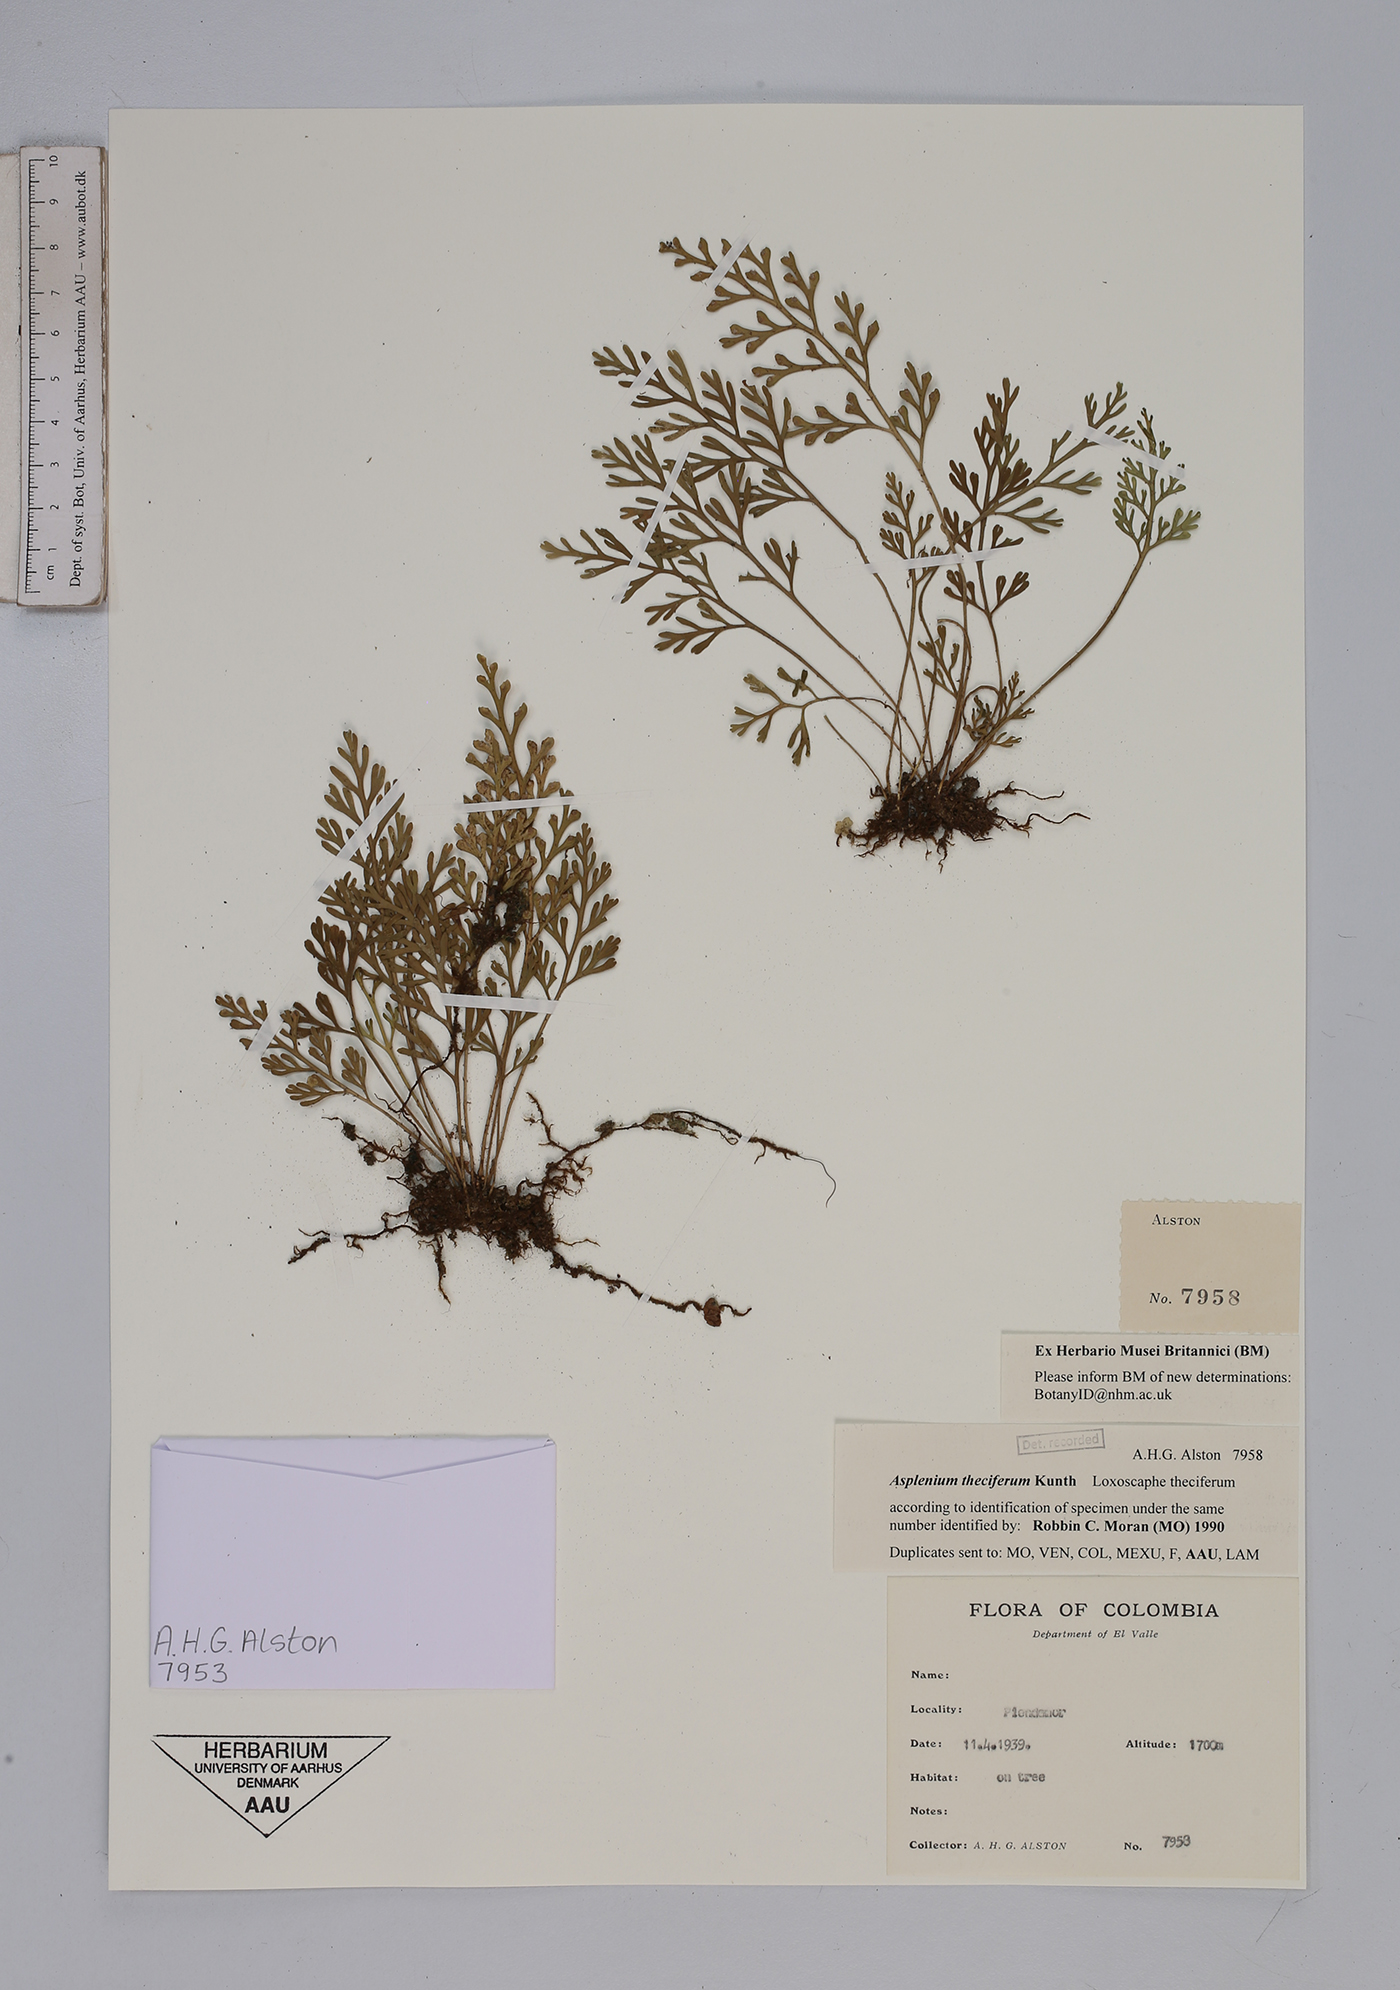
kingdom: Plantae
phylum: Tracheophyta
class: Polypodiopsida
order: Polypodiales
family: Aspleniaceae
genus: Asplenium
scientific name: Asplenium theciferum
